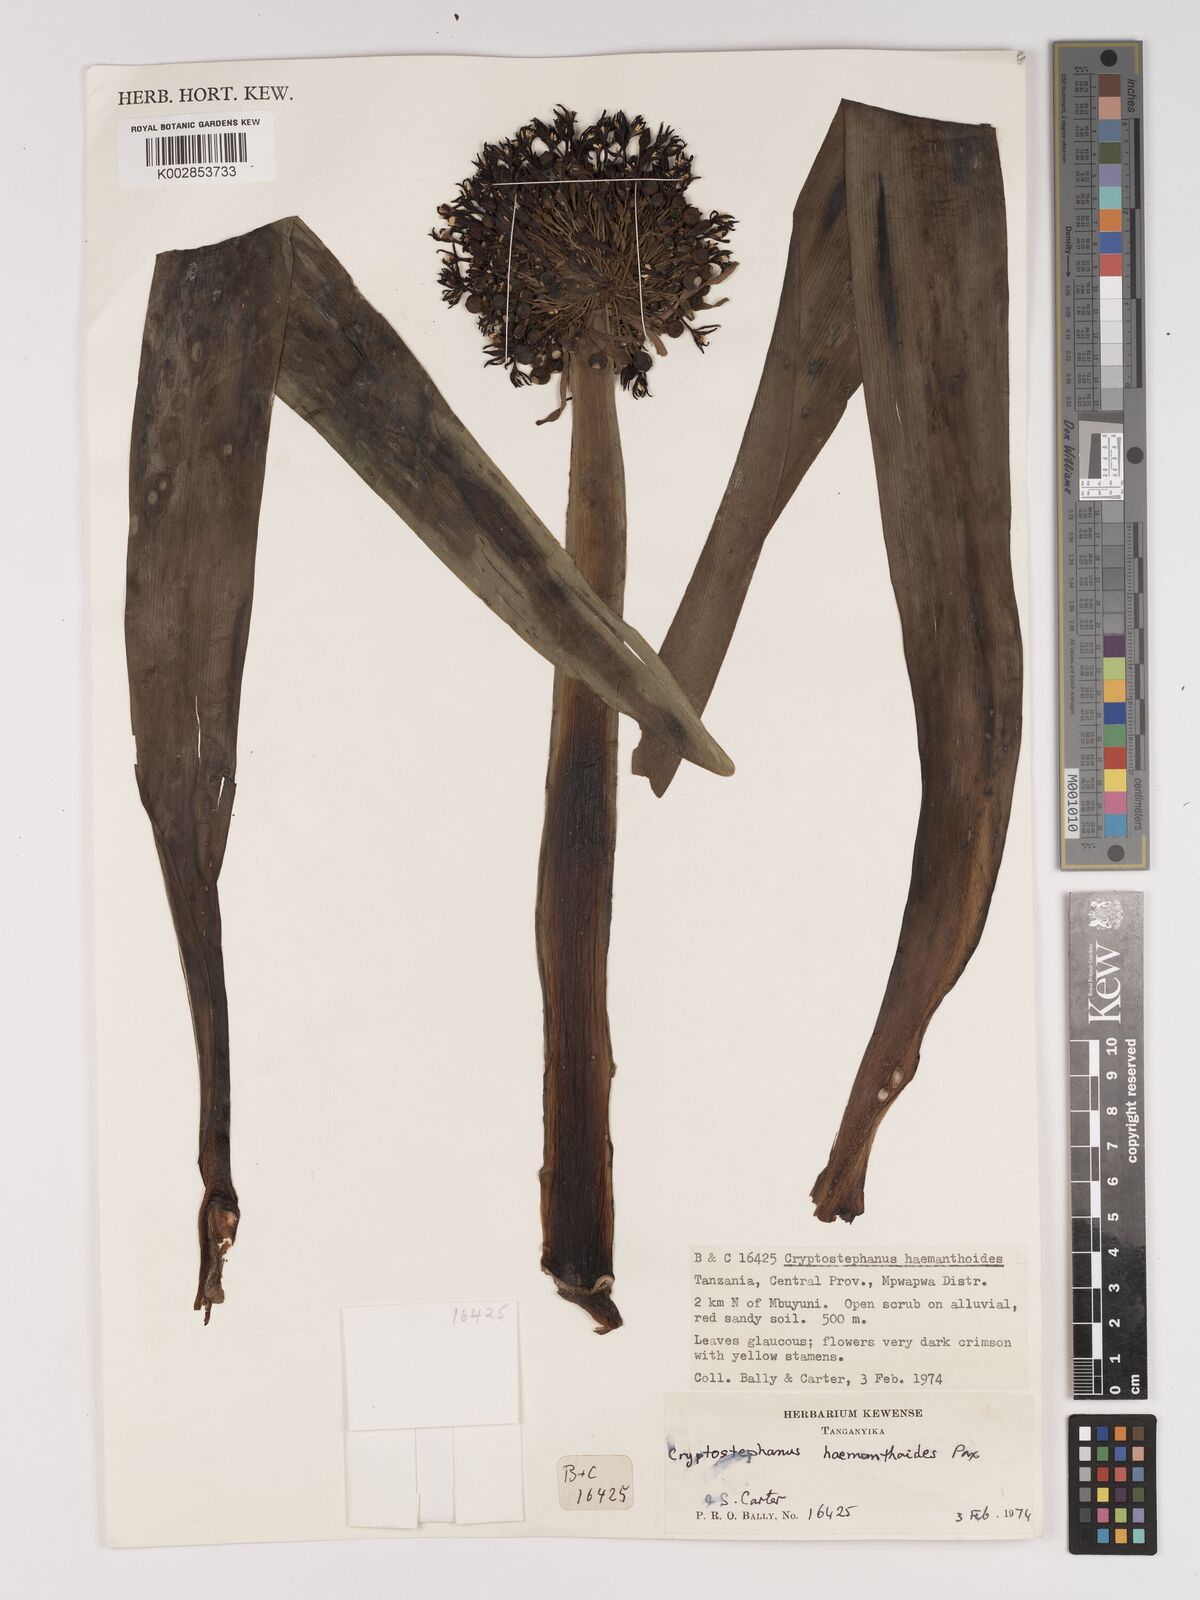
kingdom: Plantae
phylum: Tracheophyta
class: Liliopsida
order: Asparagales
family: Amaryllidaceae
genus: Cryptostephanus
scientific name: Cryptostephanus haemanthoides
